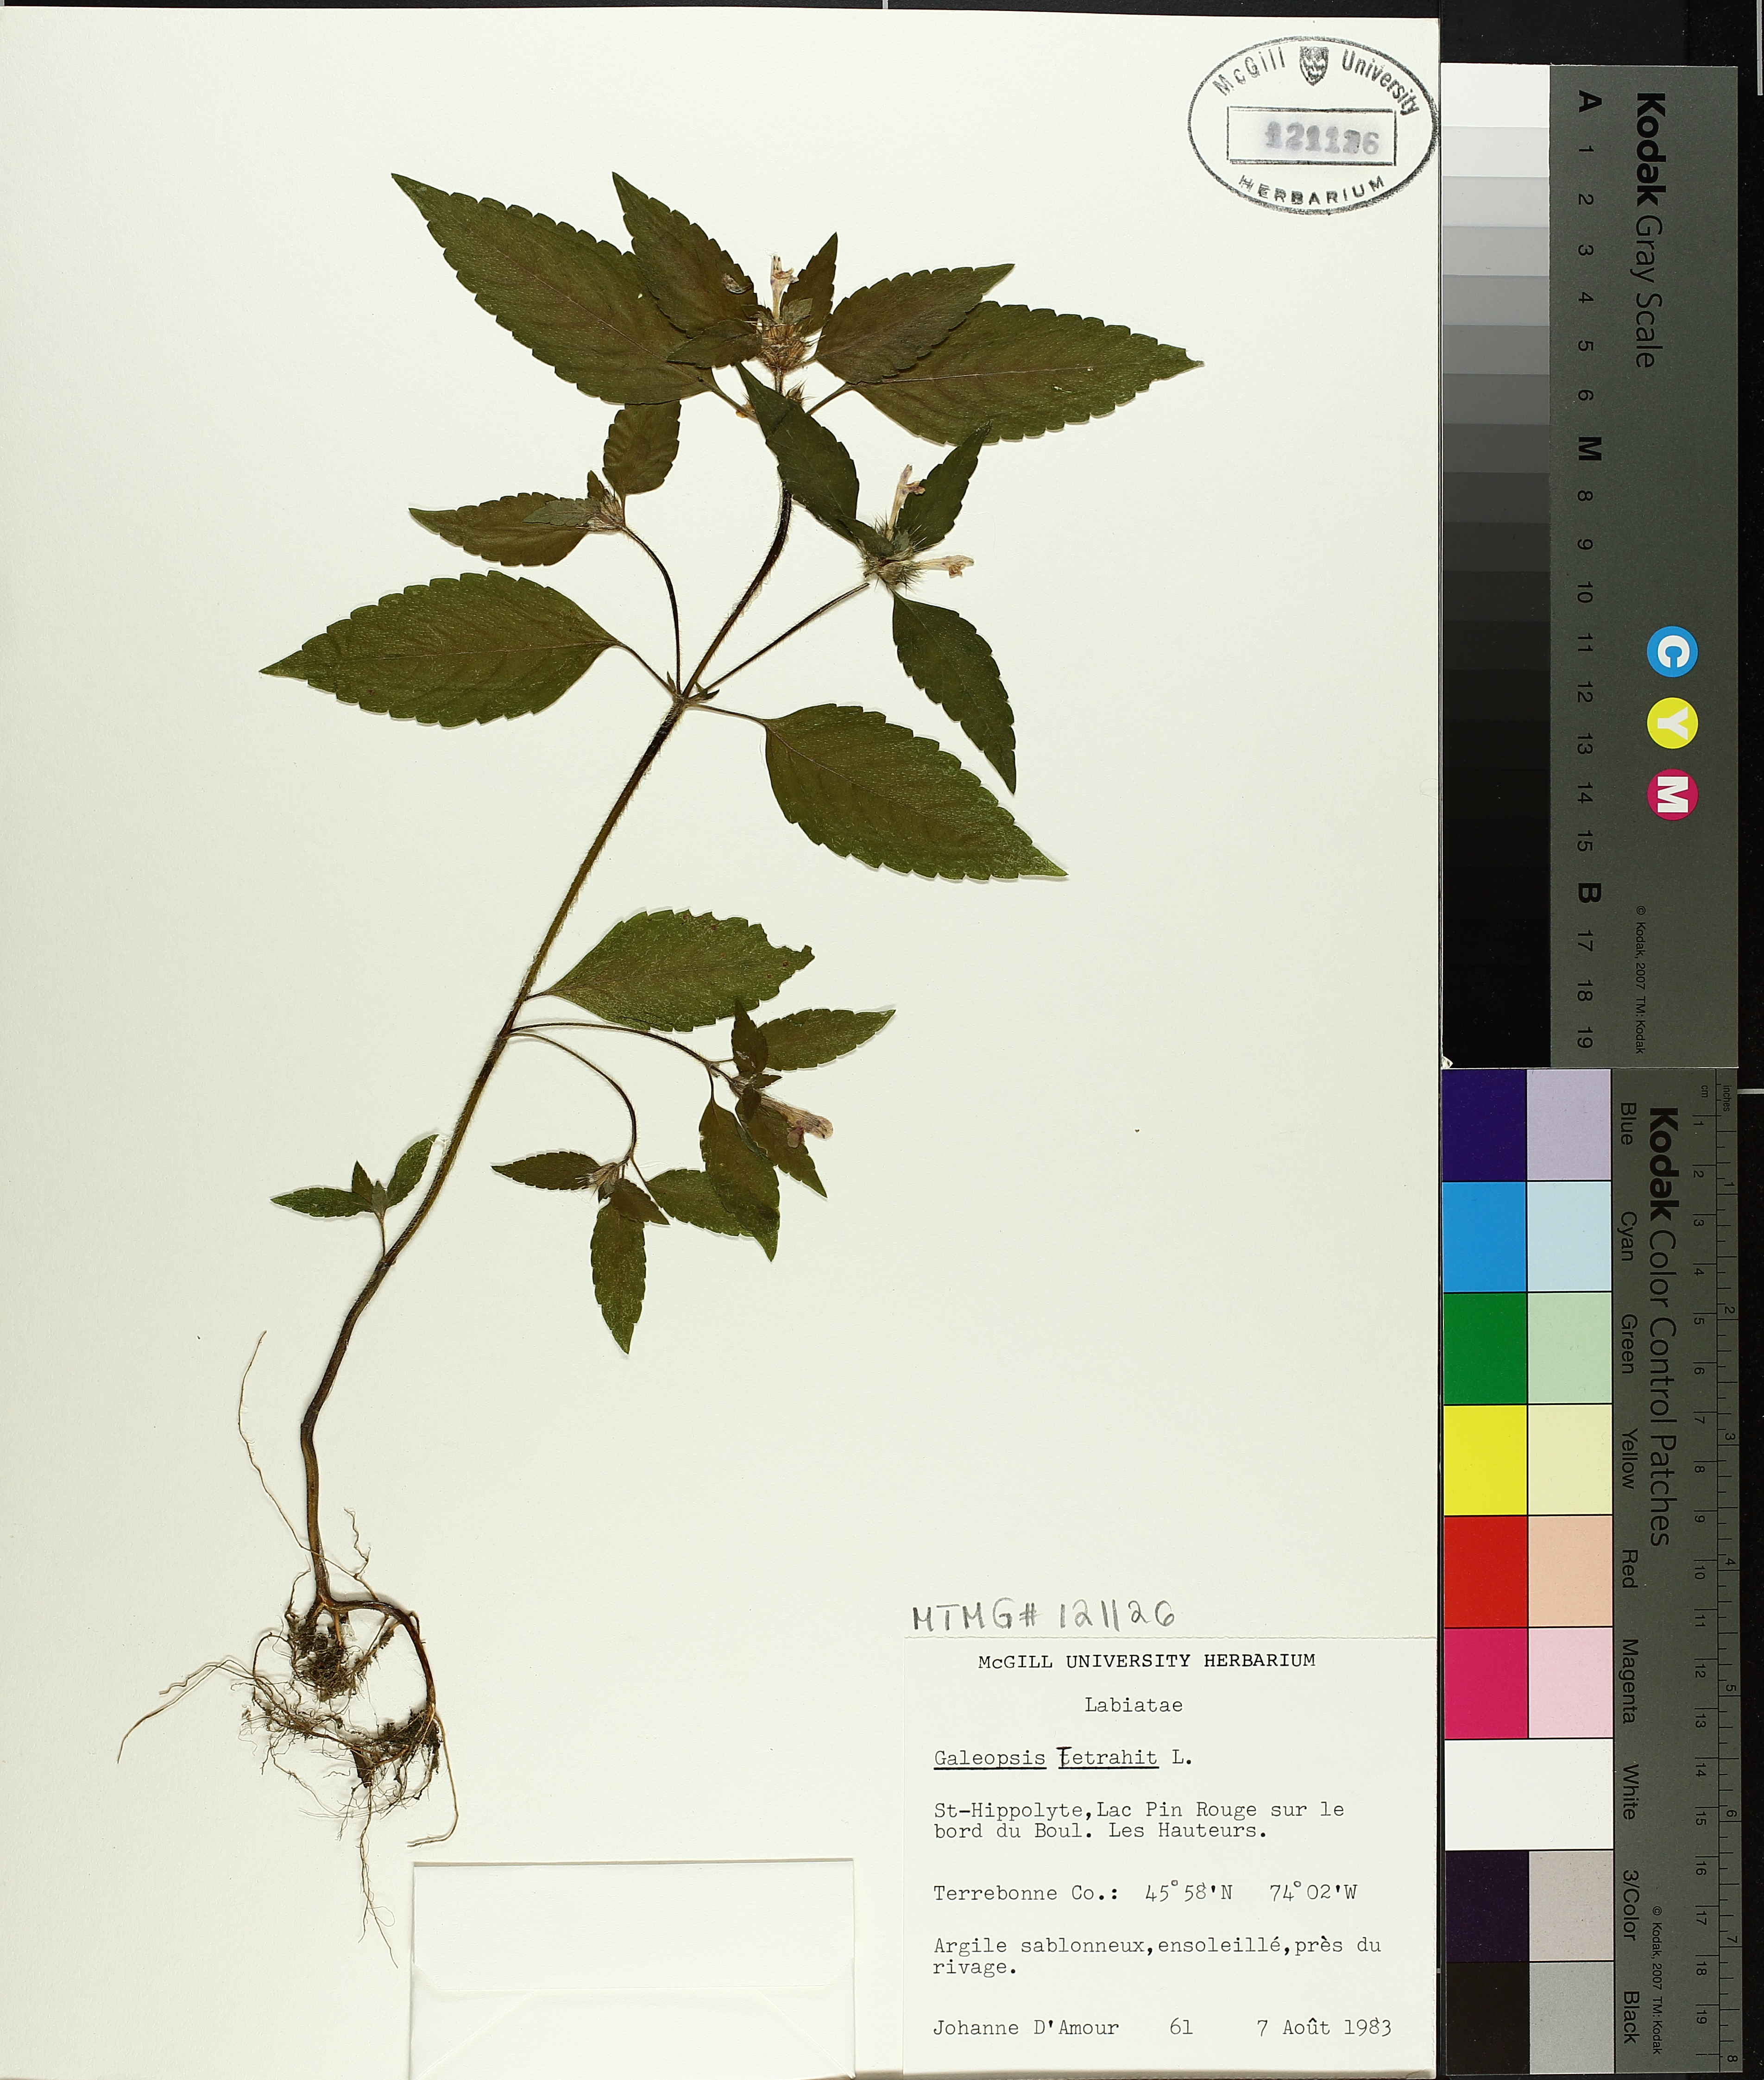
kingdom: Plantae
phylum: Tracheophyta
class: Magnoliopsida
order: Lamiales
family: Lamiaceae
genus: Galeopsis
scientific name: Galeopsis tetrahit
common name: Common hemp-nettle
